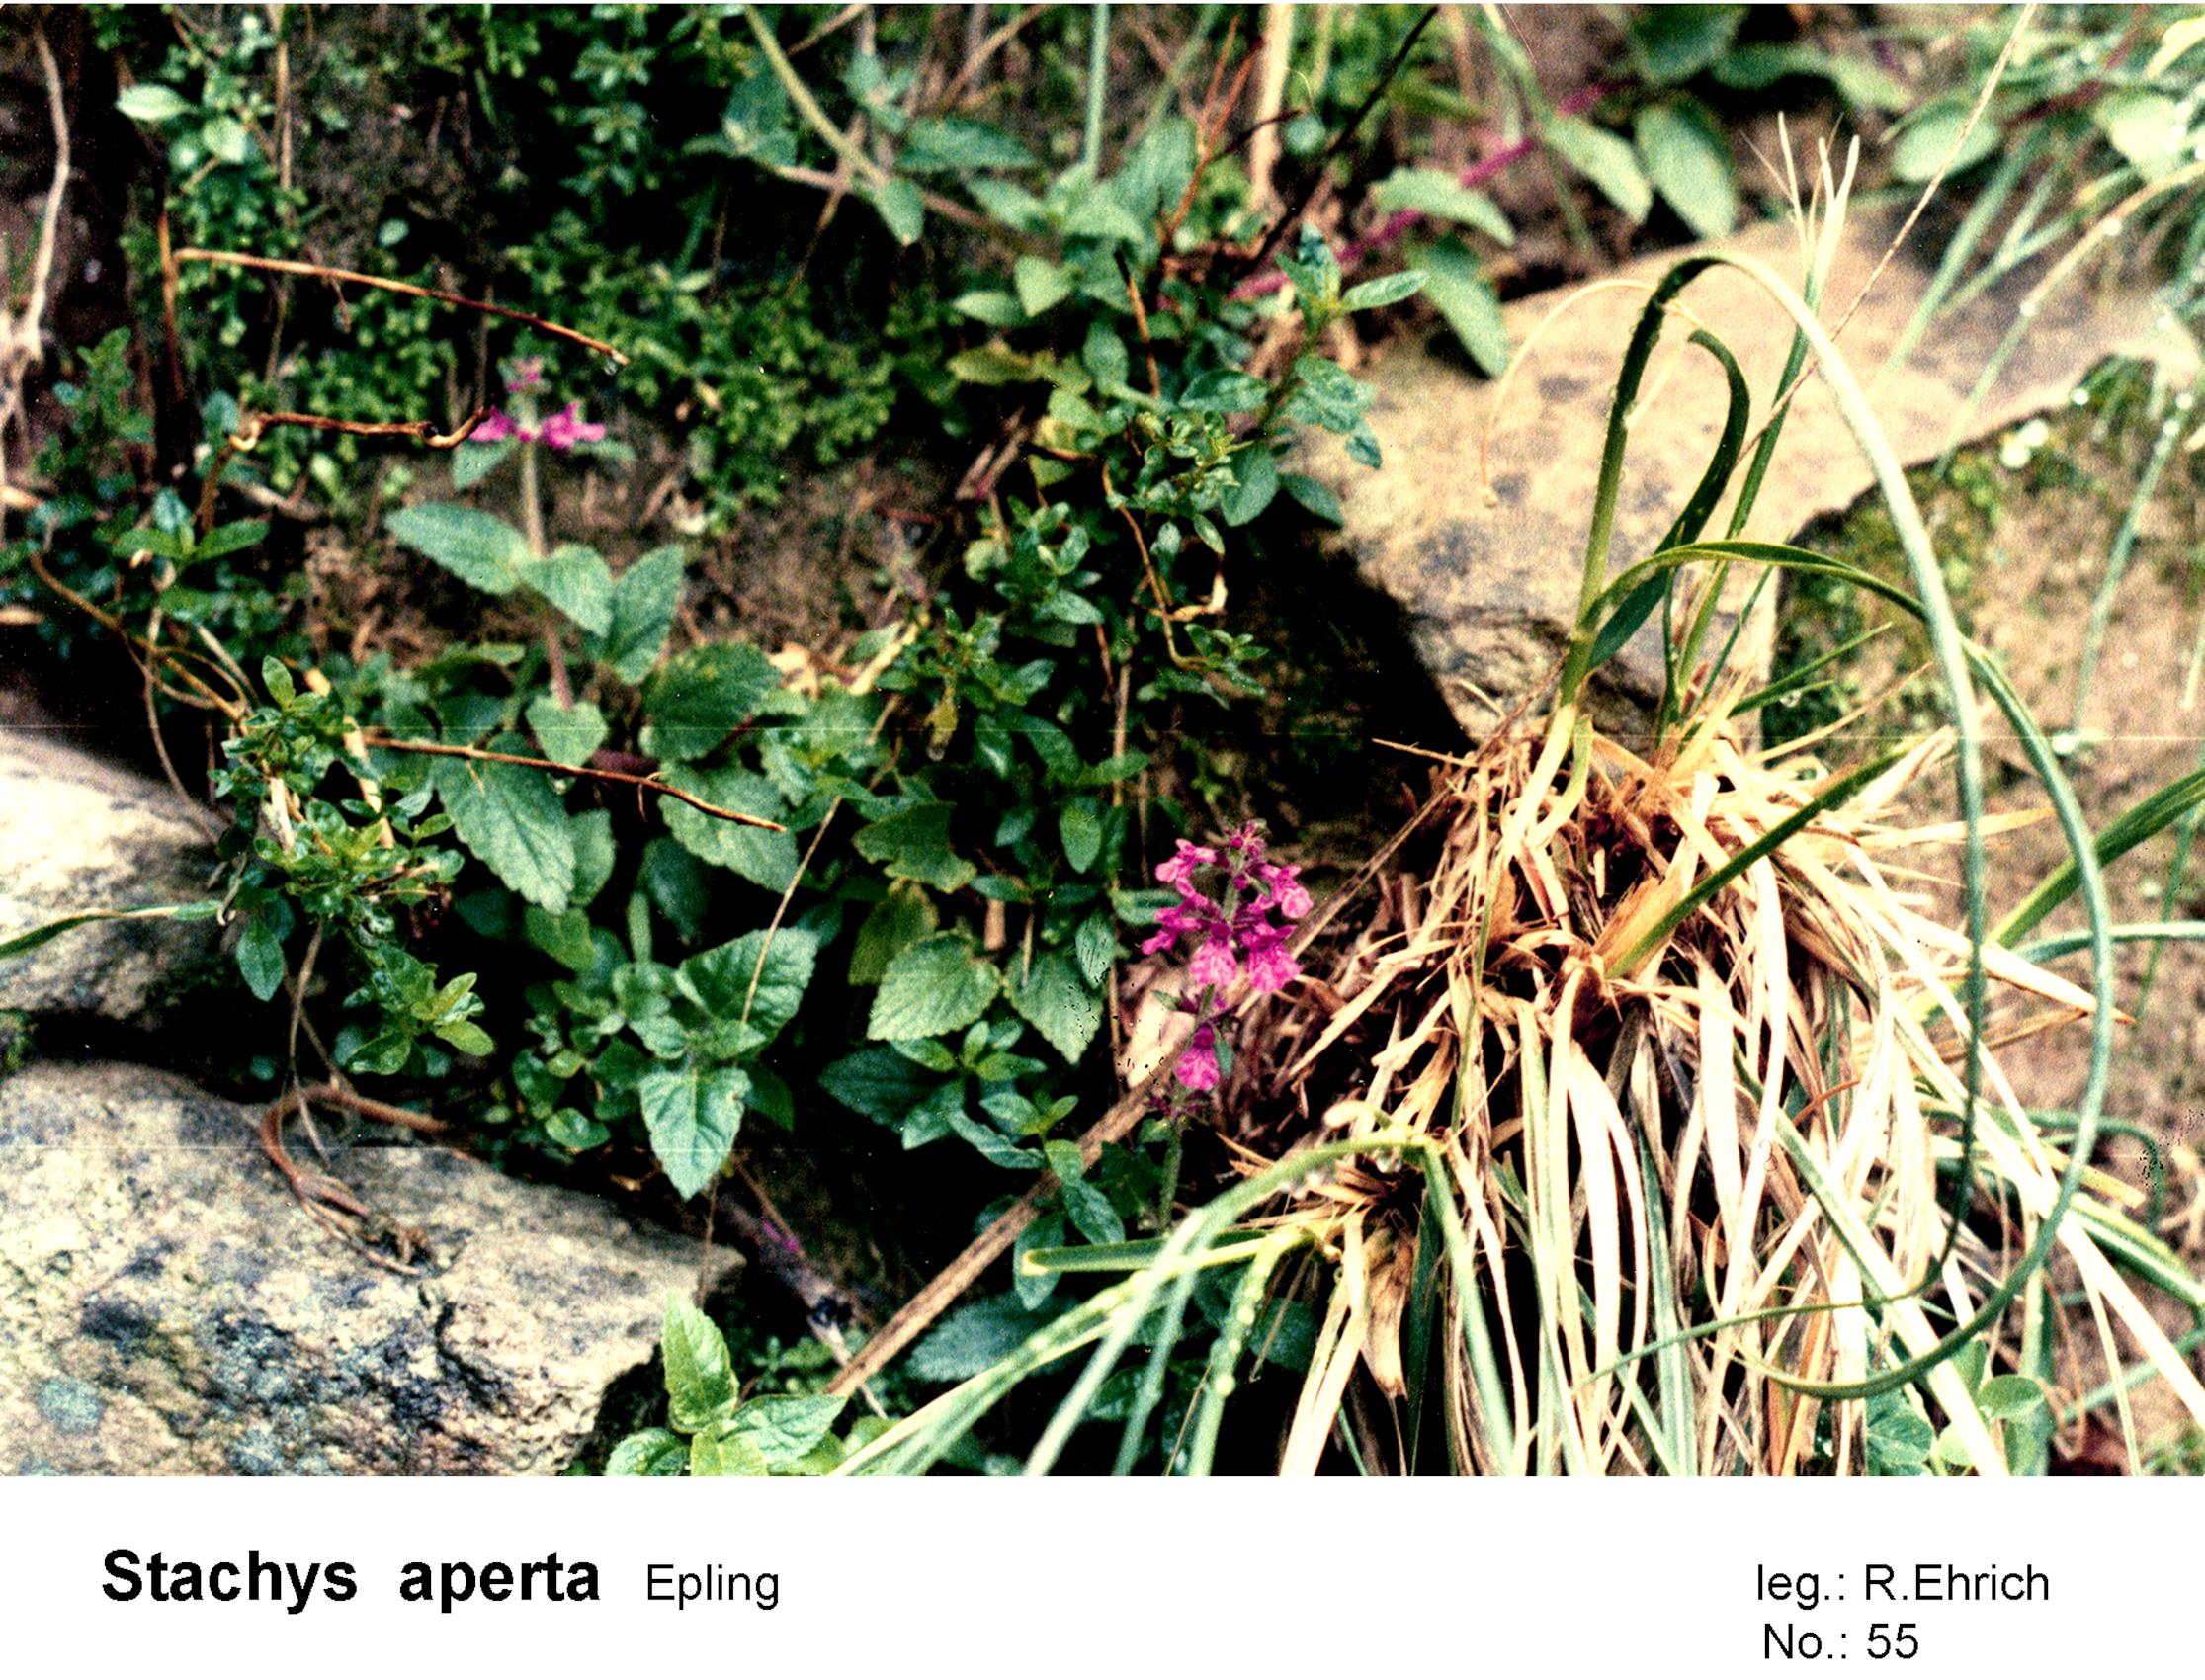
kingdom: Plantae
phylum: Tracheophyta
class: Magnoliopsida
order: Lamiales
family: Lamiaceae
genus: Stachys
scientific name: Stachys aperta
